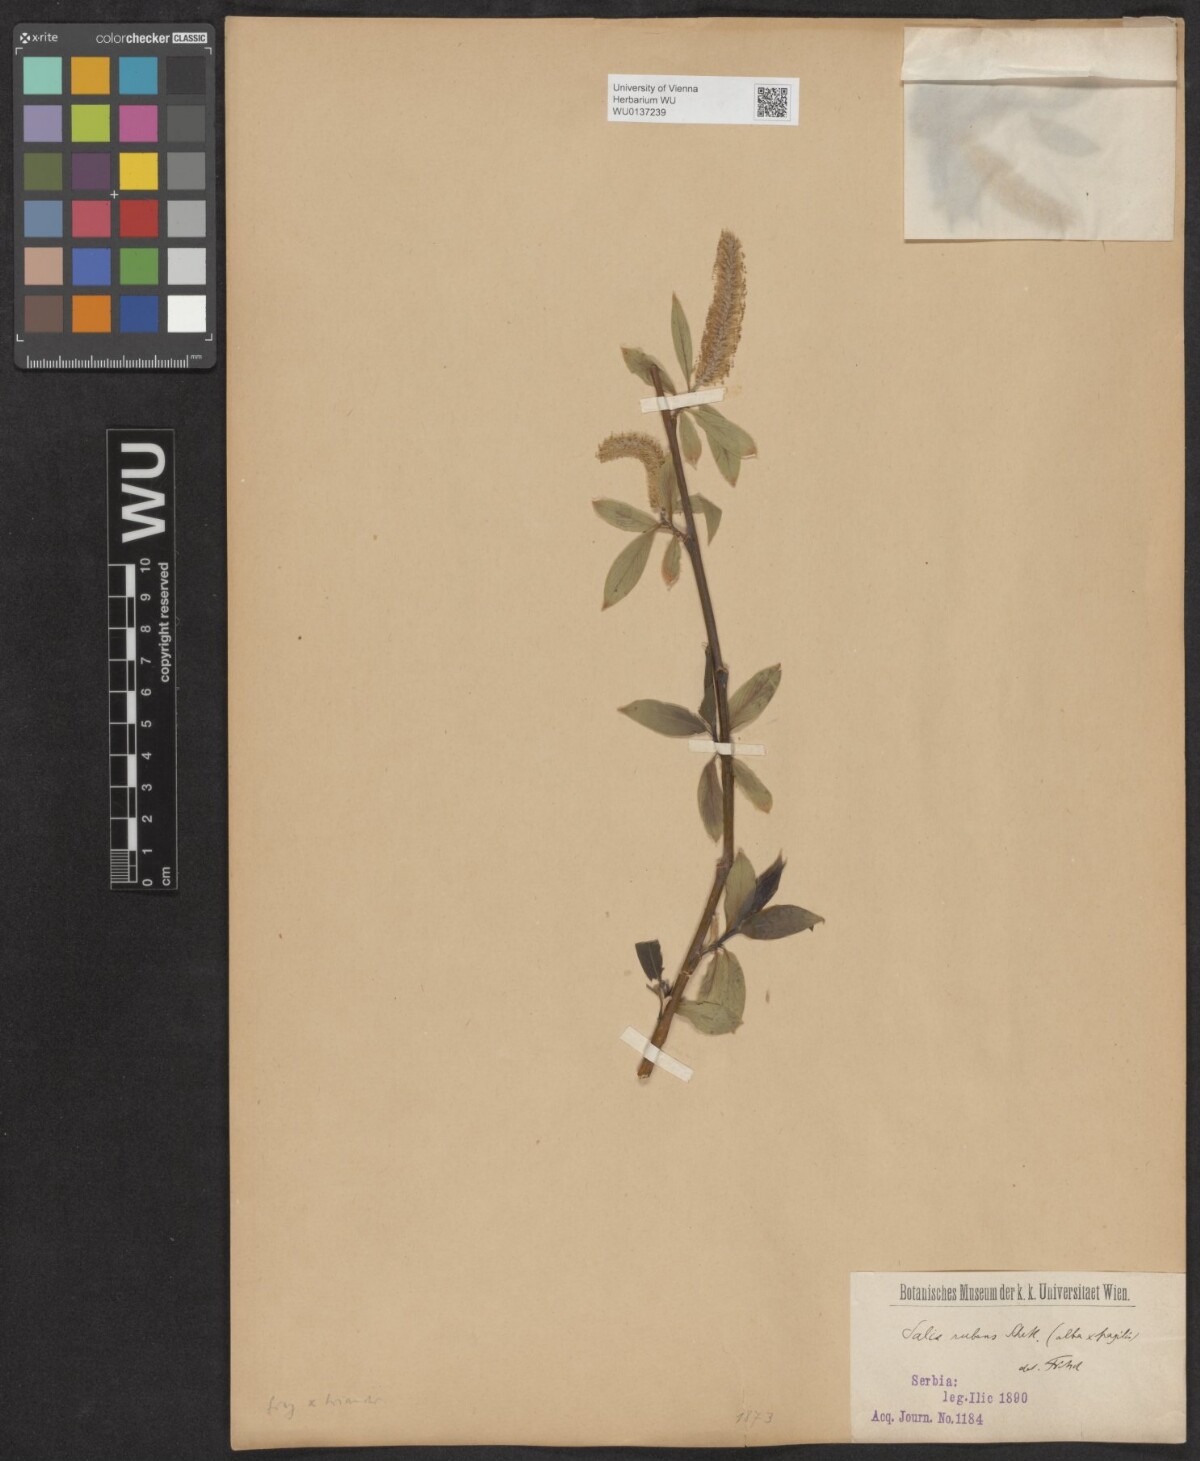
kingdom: Plantae
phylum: Tracheophyta
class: Magnoliopsida
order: Malpighiales
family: Salicaceae
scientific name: Salicaceae
